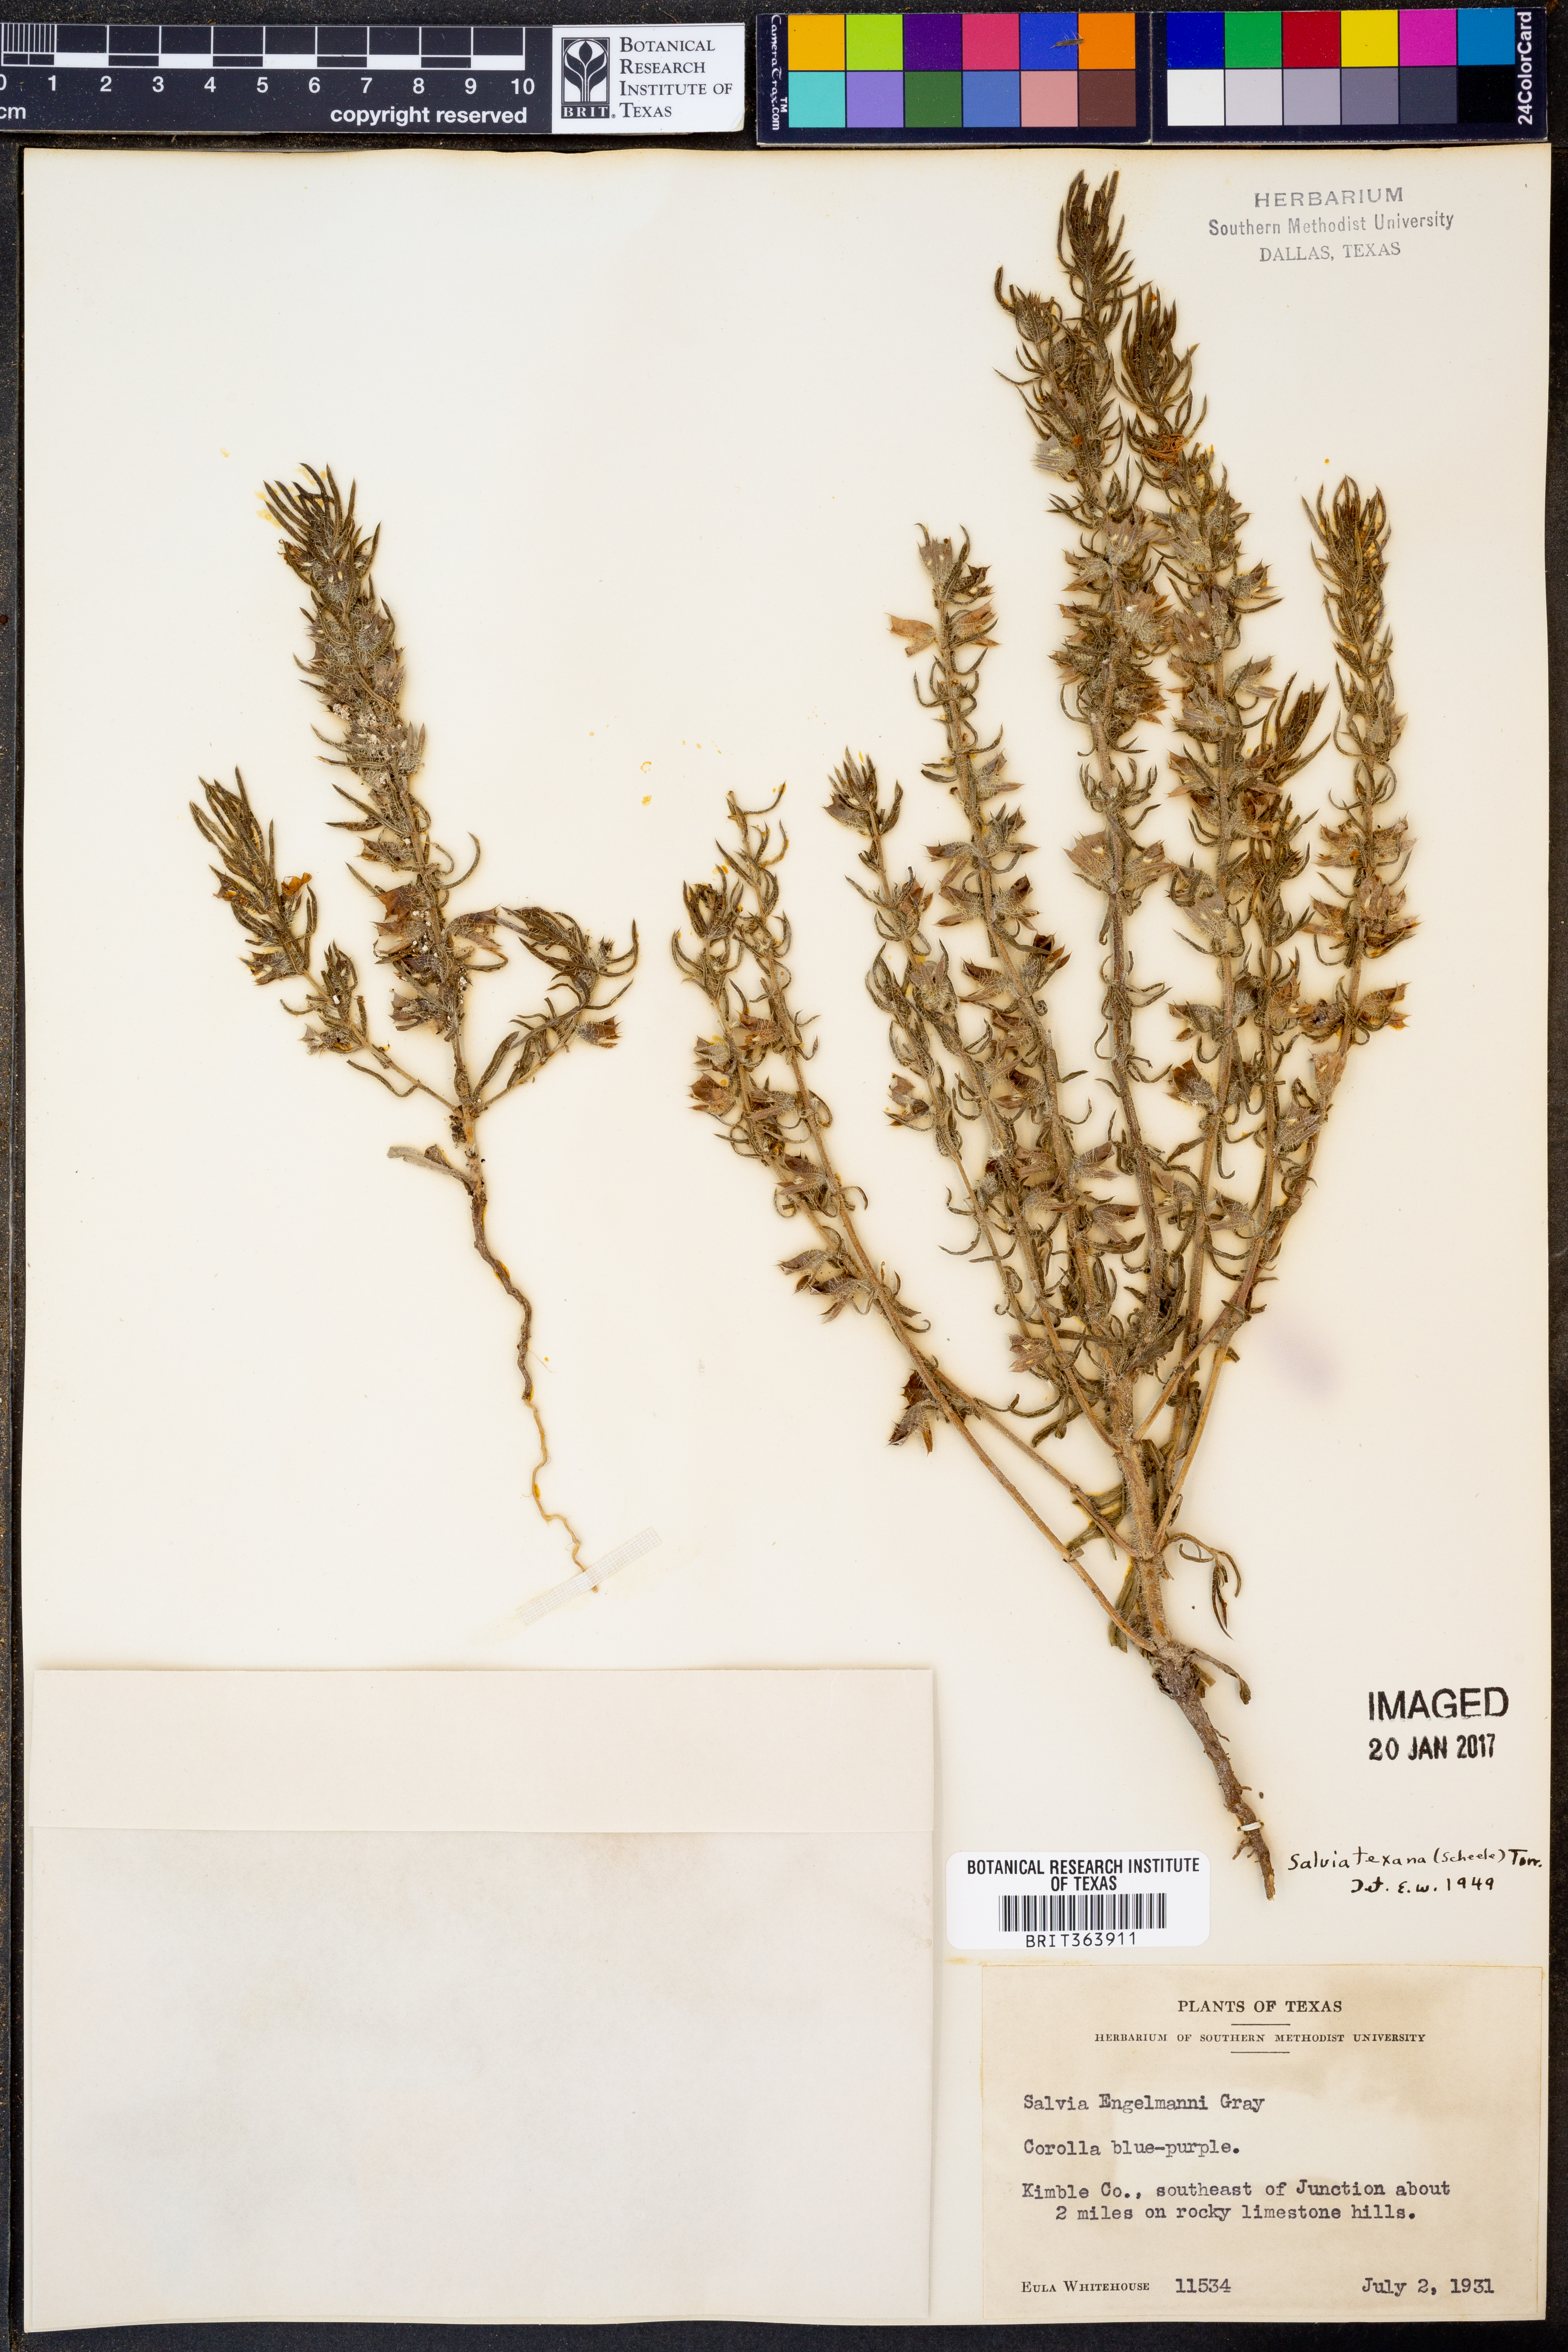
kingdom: Plantae
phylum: Tracheophyta
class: Magnoliopsida
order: Lamiales
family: Lamiaceae
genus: Salvia
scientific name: Salvia texana
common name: Texas sage
